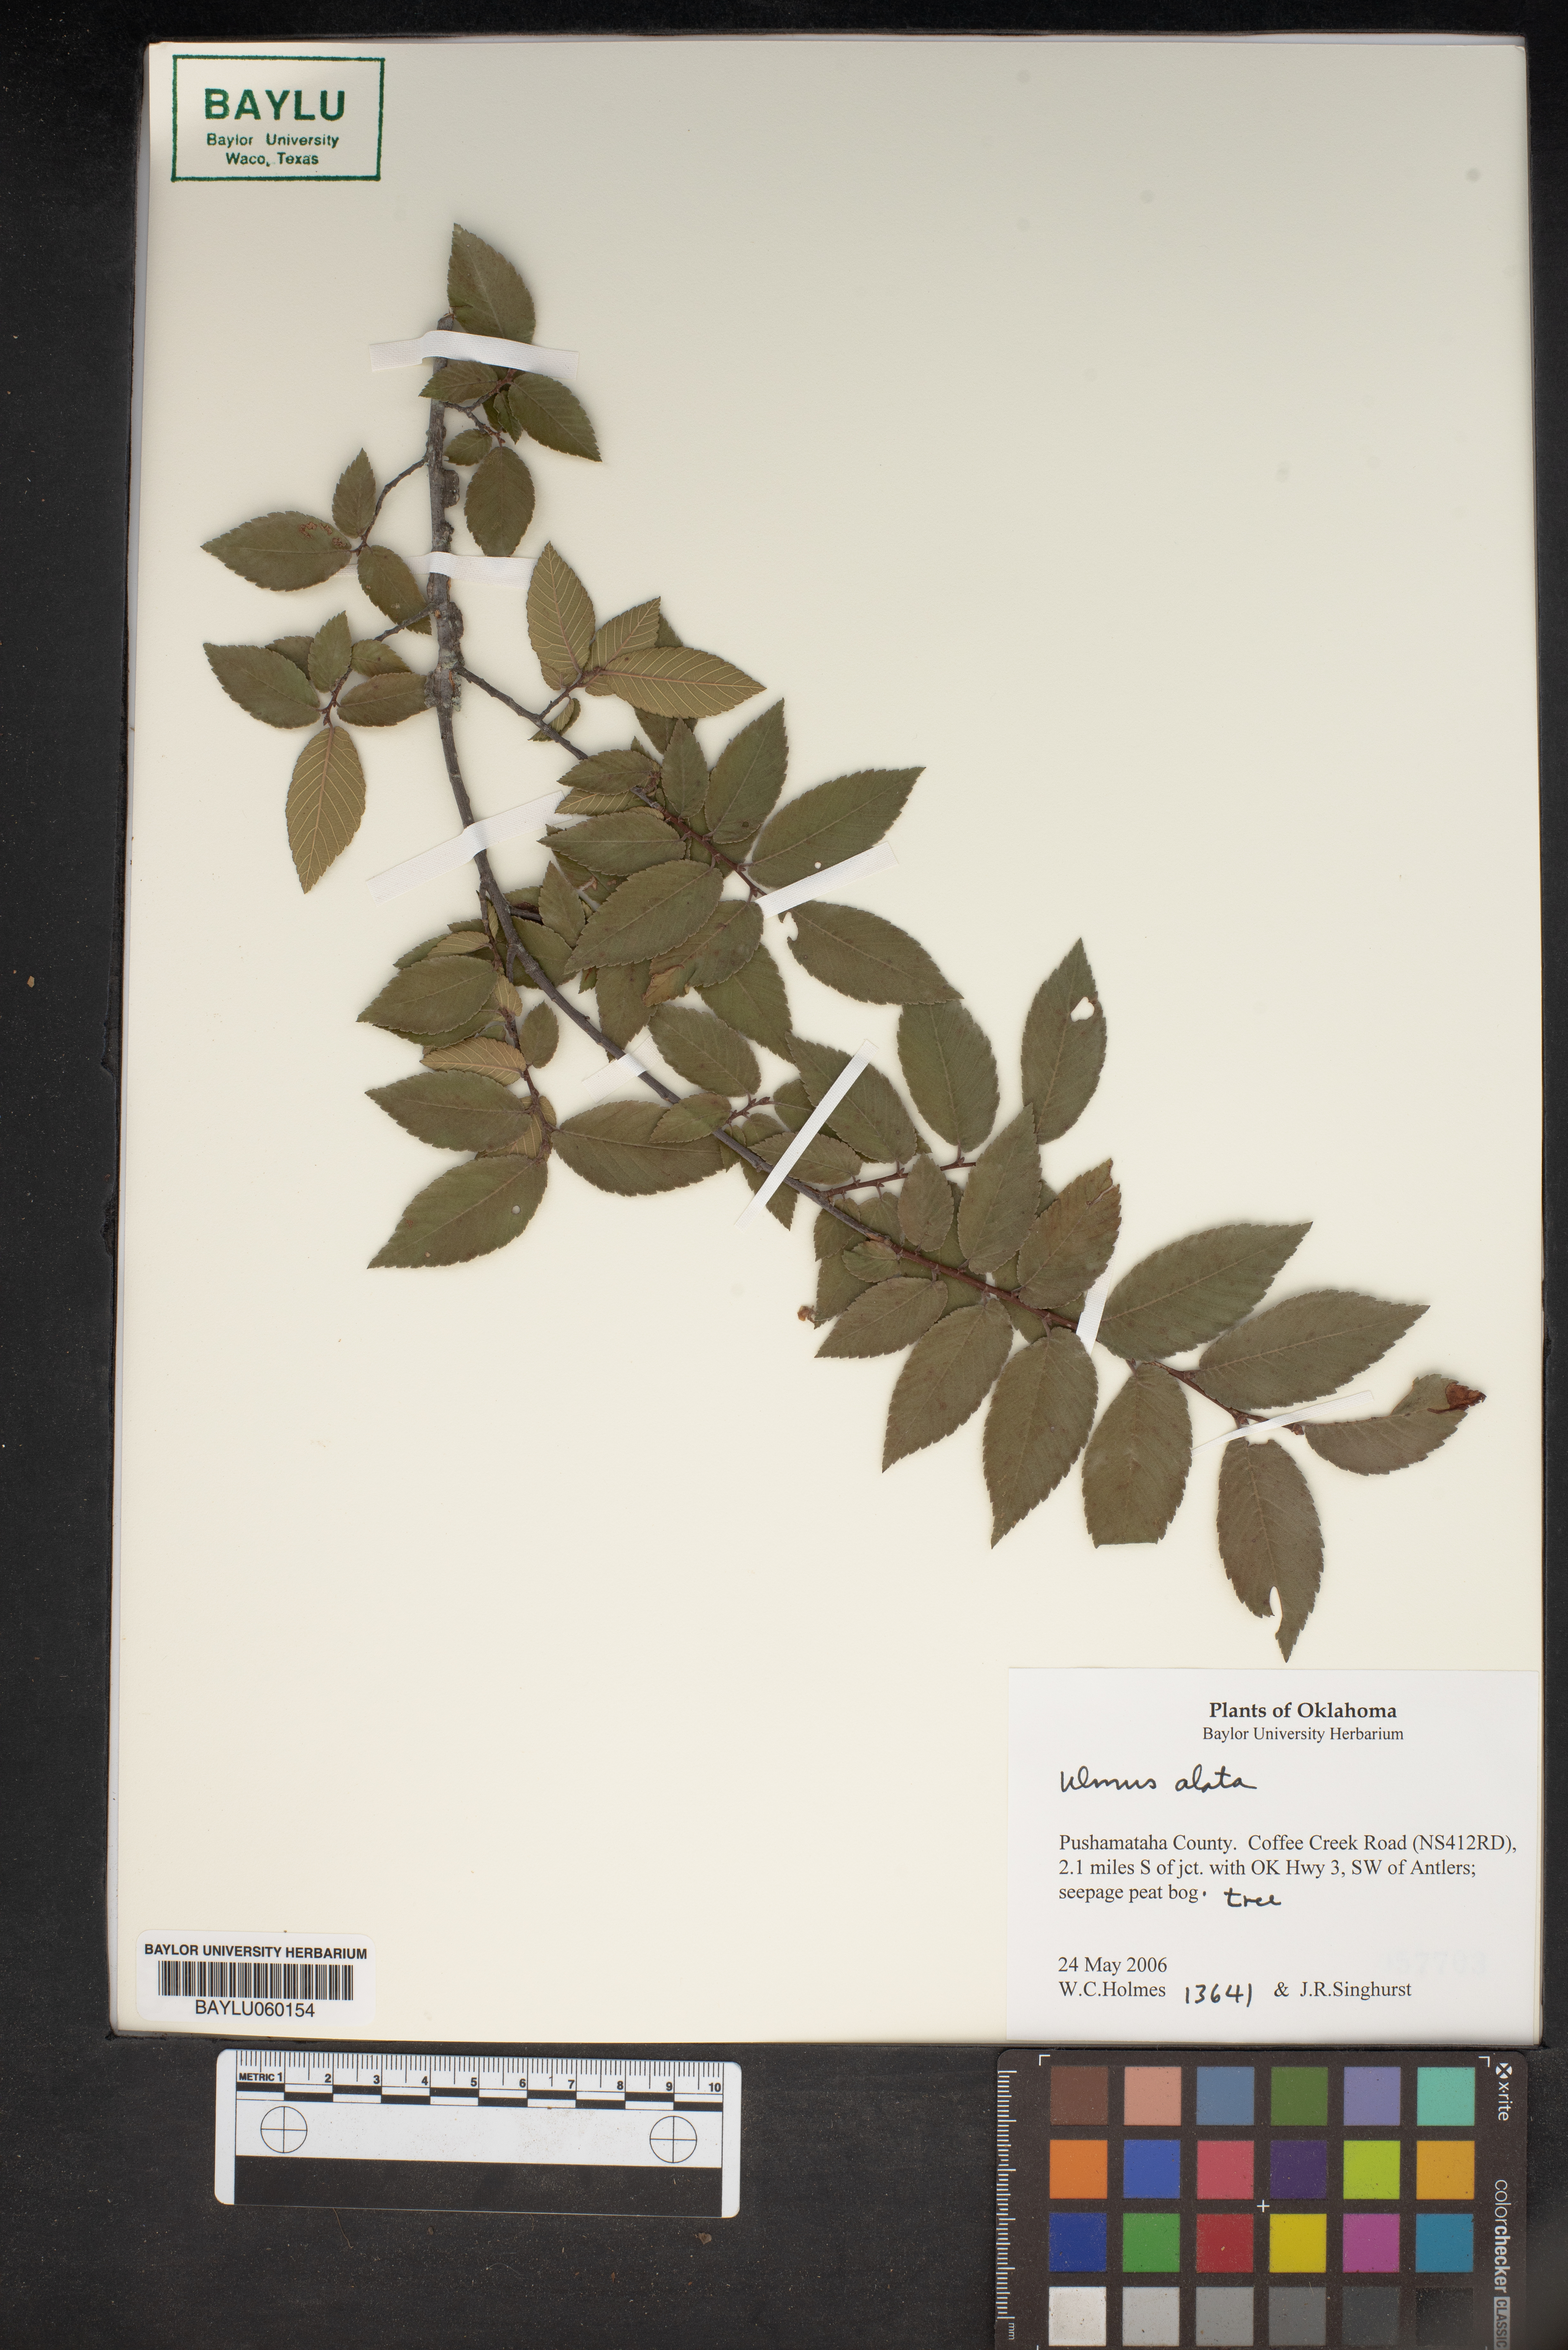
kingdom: Plantae
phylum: Tracheophyta
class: Magnoliopsida
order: Rosales
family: Ulmaceae
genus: Ulmus
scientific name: Ulmus alata
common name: Winged elm
